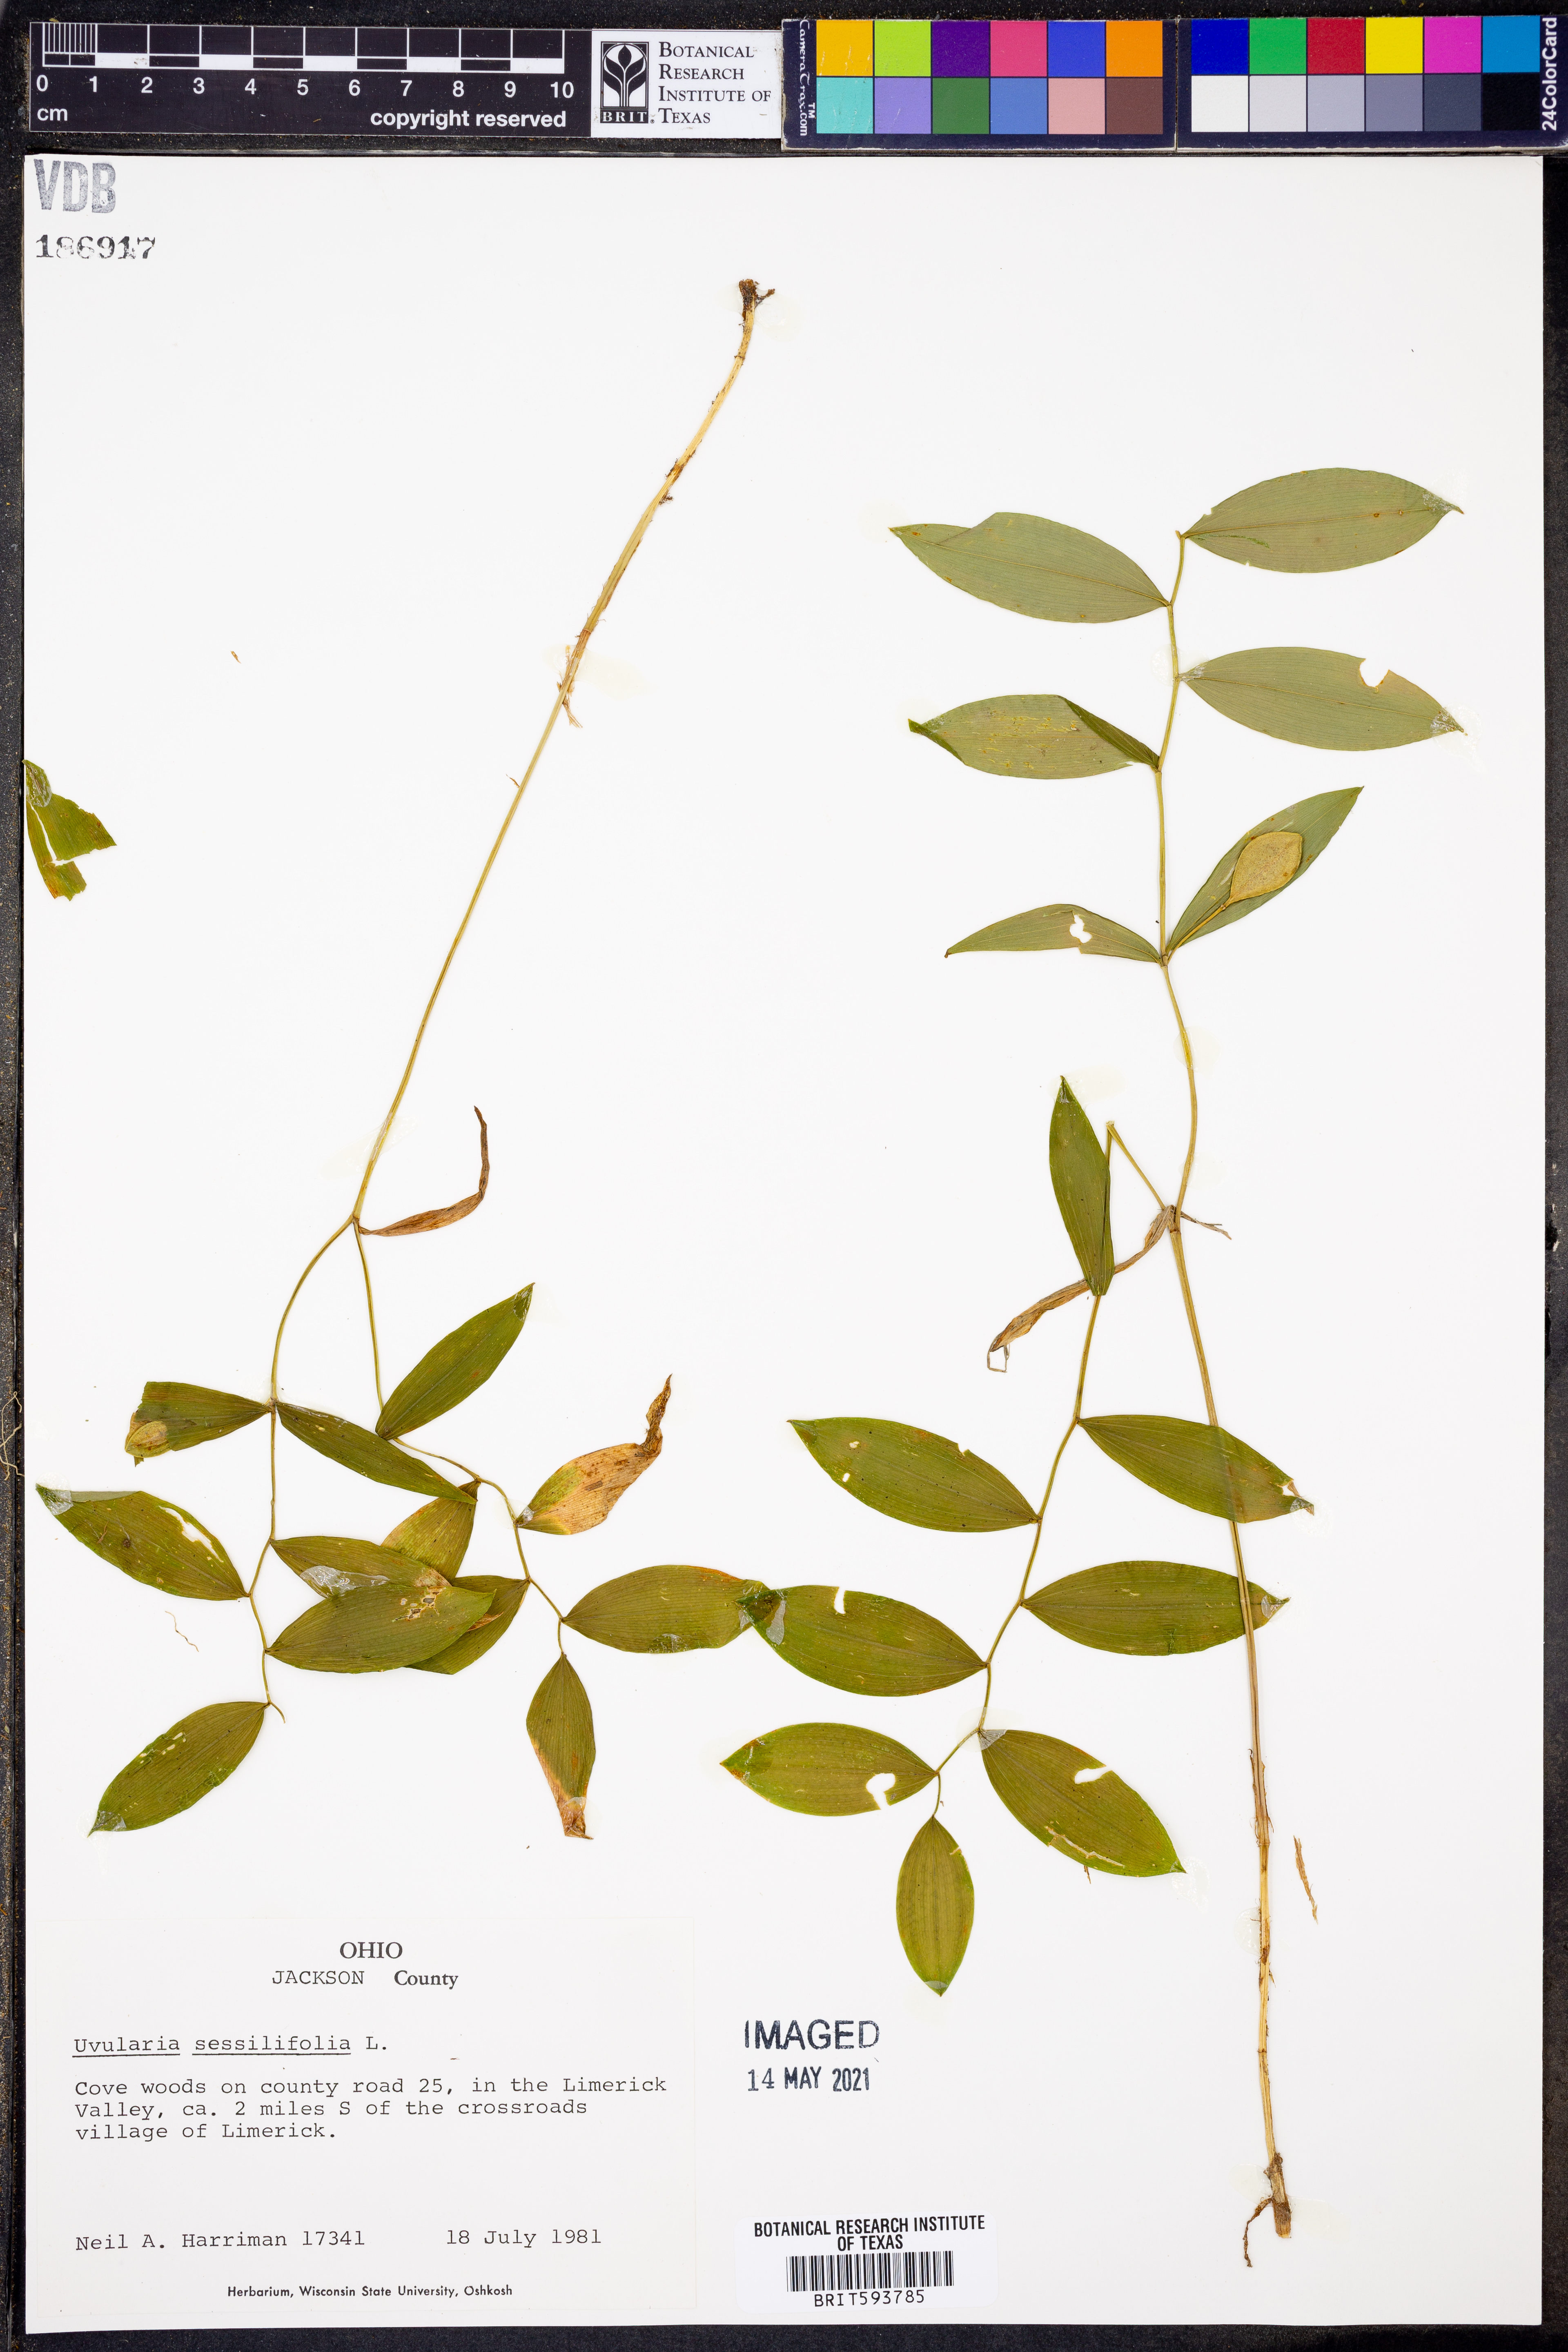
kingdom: Plantae
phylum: Tracheophyta
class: Liliopsida
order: Liliales
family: Colchicaceae
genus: Uvularia
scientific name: Uvularia sessilifolia
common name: Straw-lily
